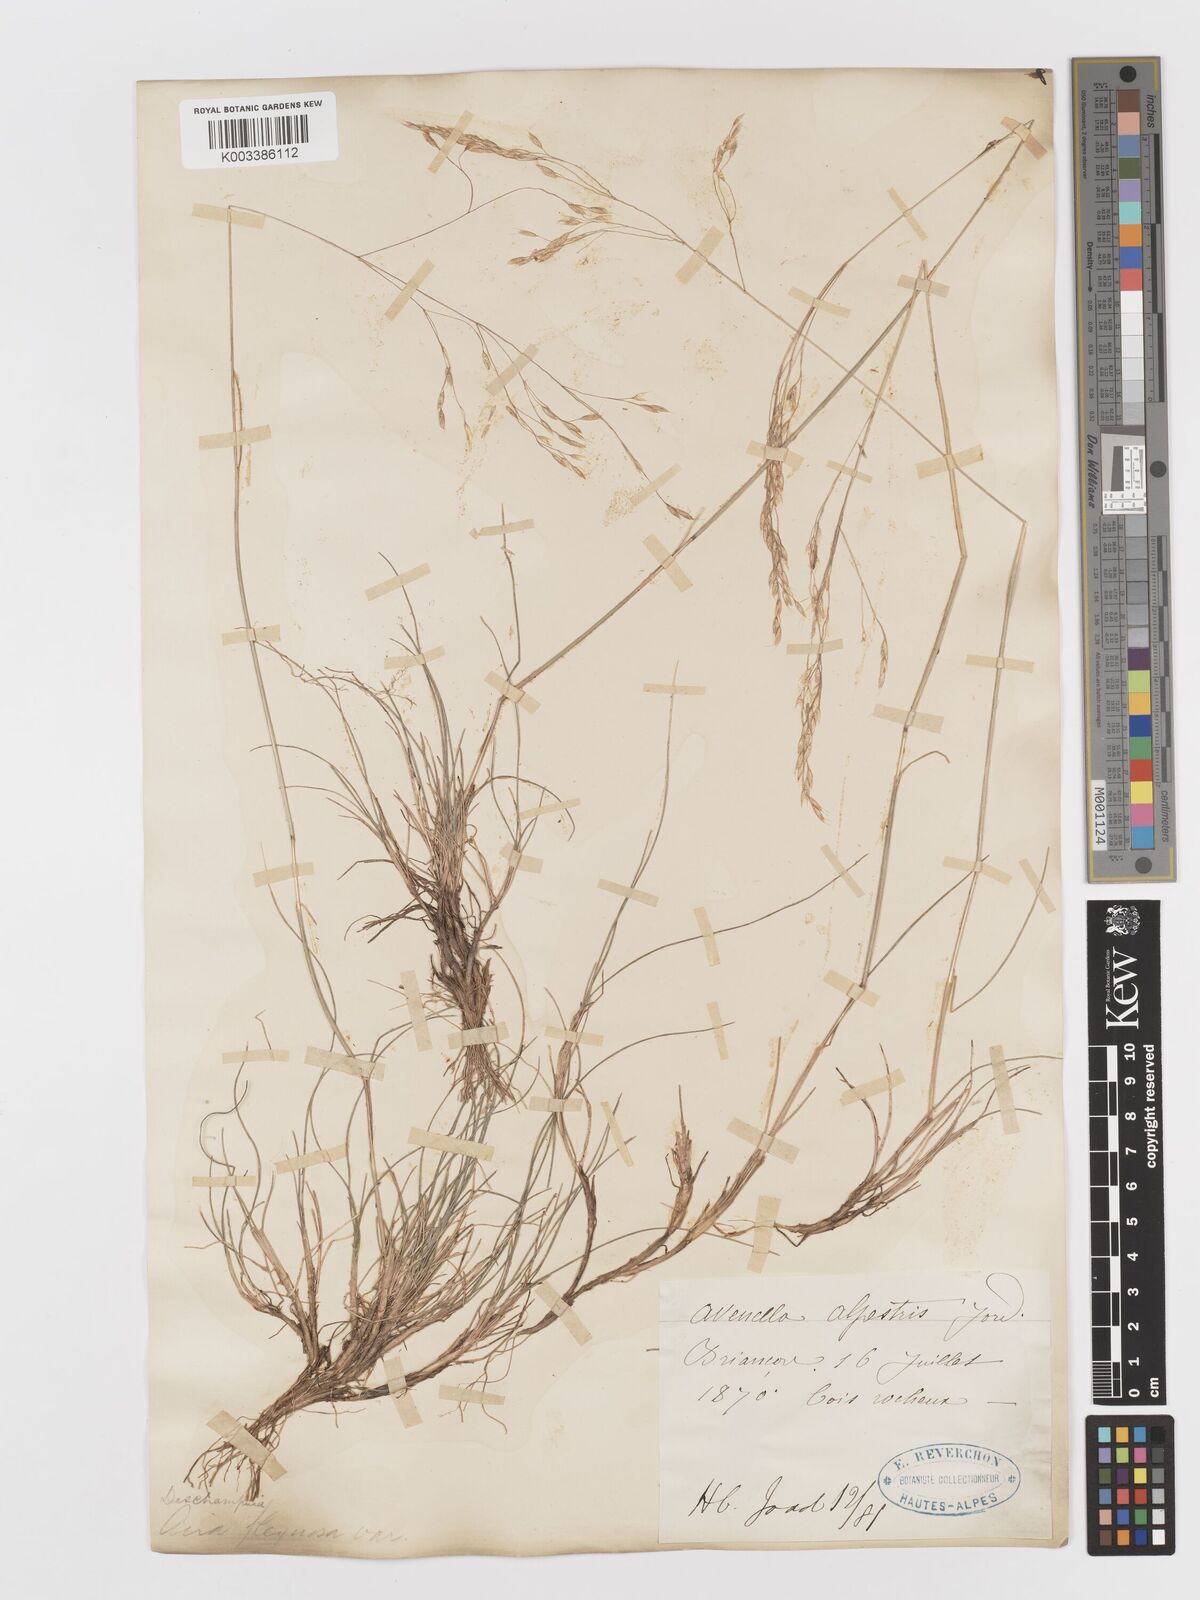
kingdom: Plantae
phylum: Tracheophyta
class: Liliopsida
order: Poales
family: Poaceae
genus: Avenella
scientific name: Avenella flexuosa
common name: Wavy hairgrass
